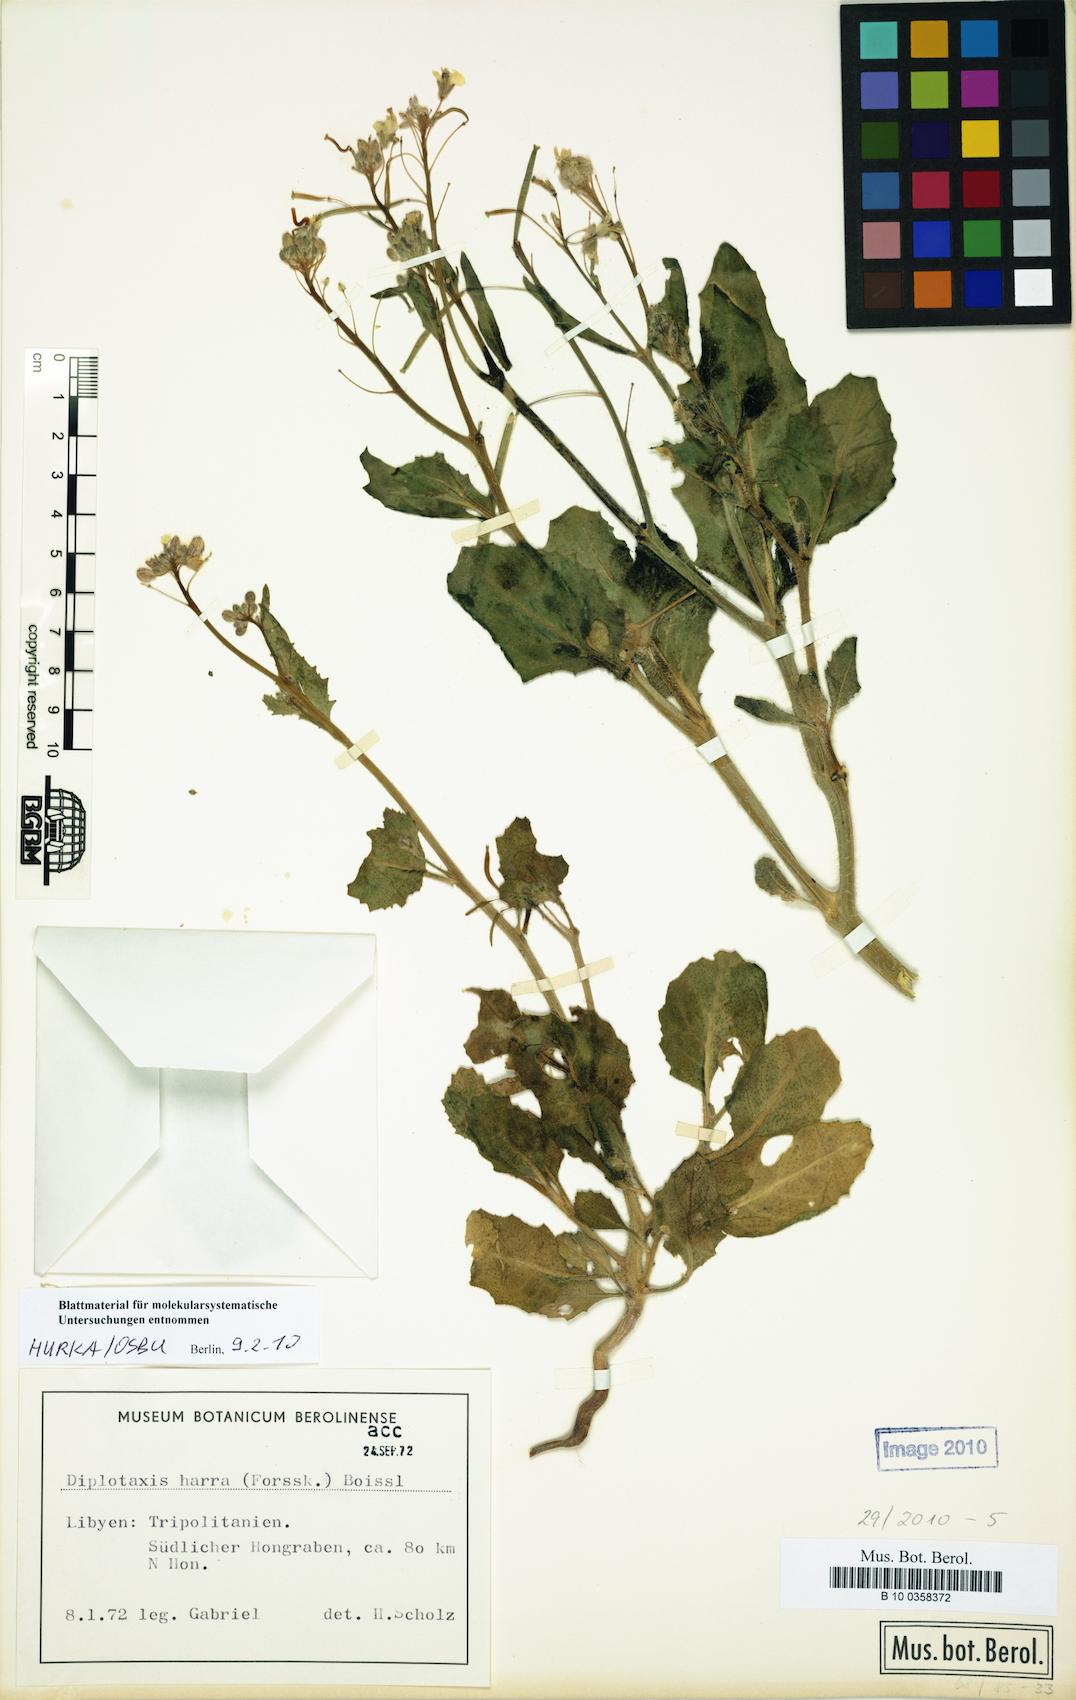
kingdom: Plantae
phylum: Tracheophyta
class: Magnoliopsida
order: Brassicales
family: Brassicaceae
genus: Diplotaxis
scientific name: Diplotaxis harra
